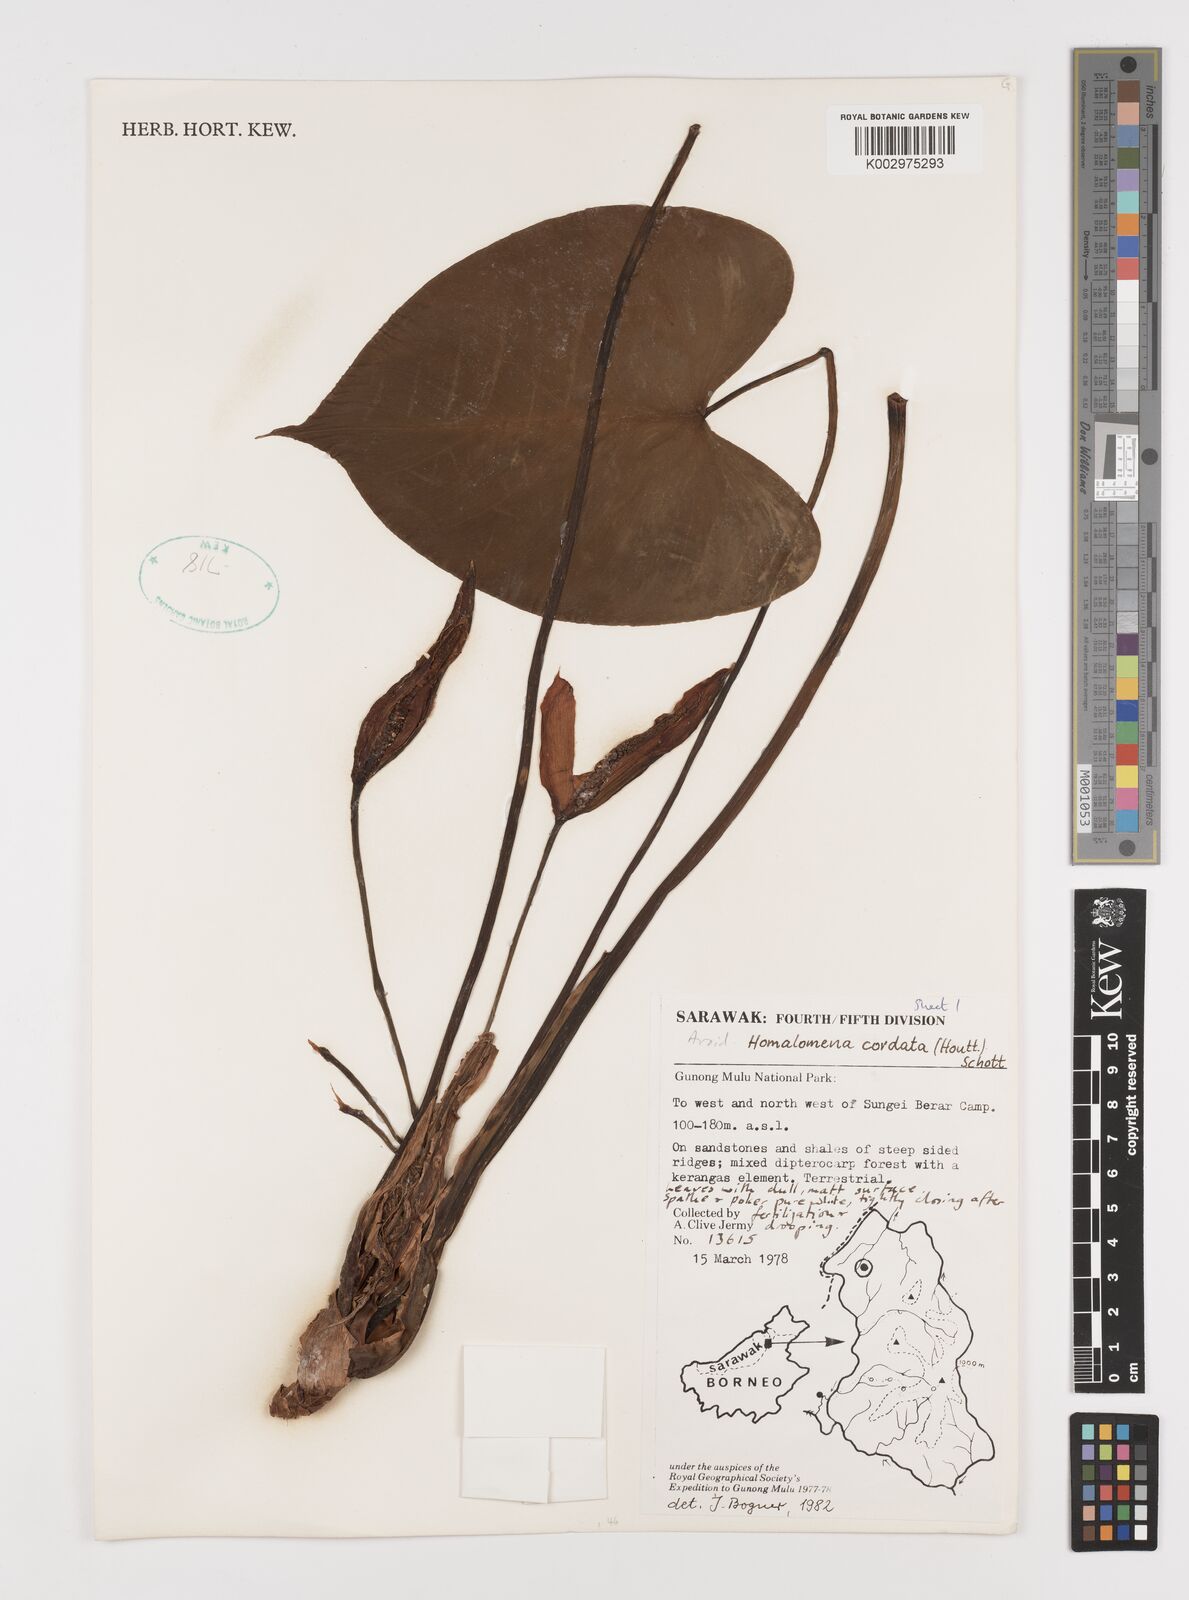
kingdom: Plantae
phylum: Tracheophyta
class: Liliopsida
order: Alismatales
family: Araceae
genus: Homalomena
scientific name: Homalomena cordata
